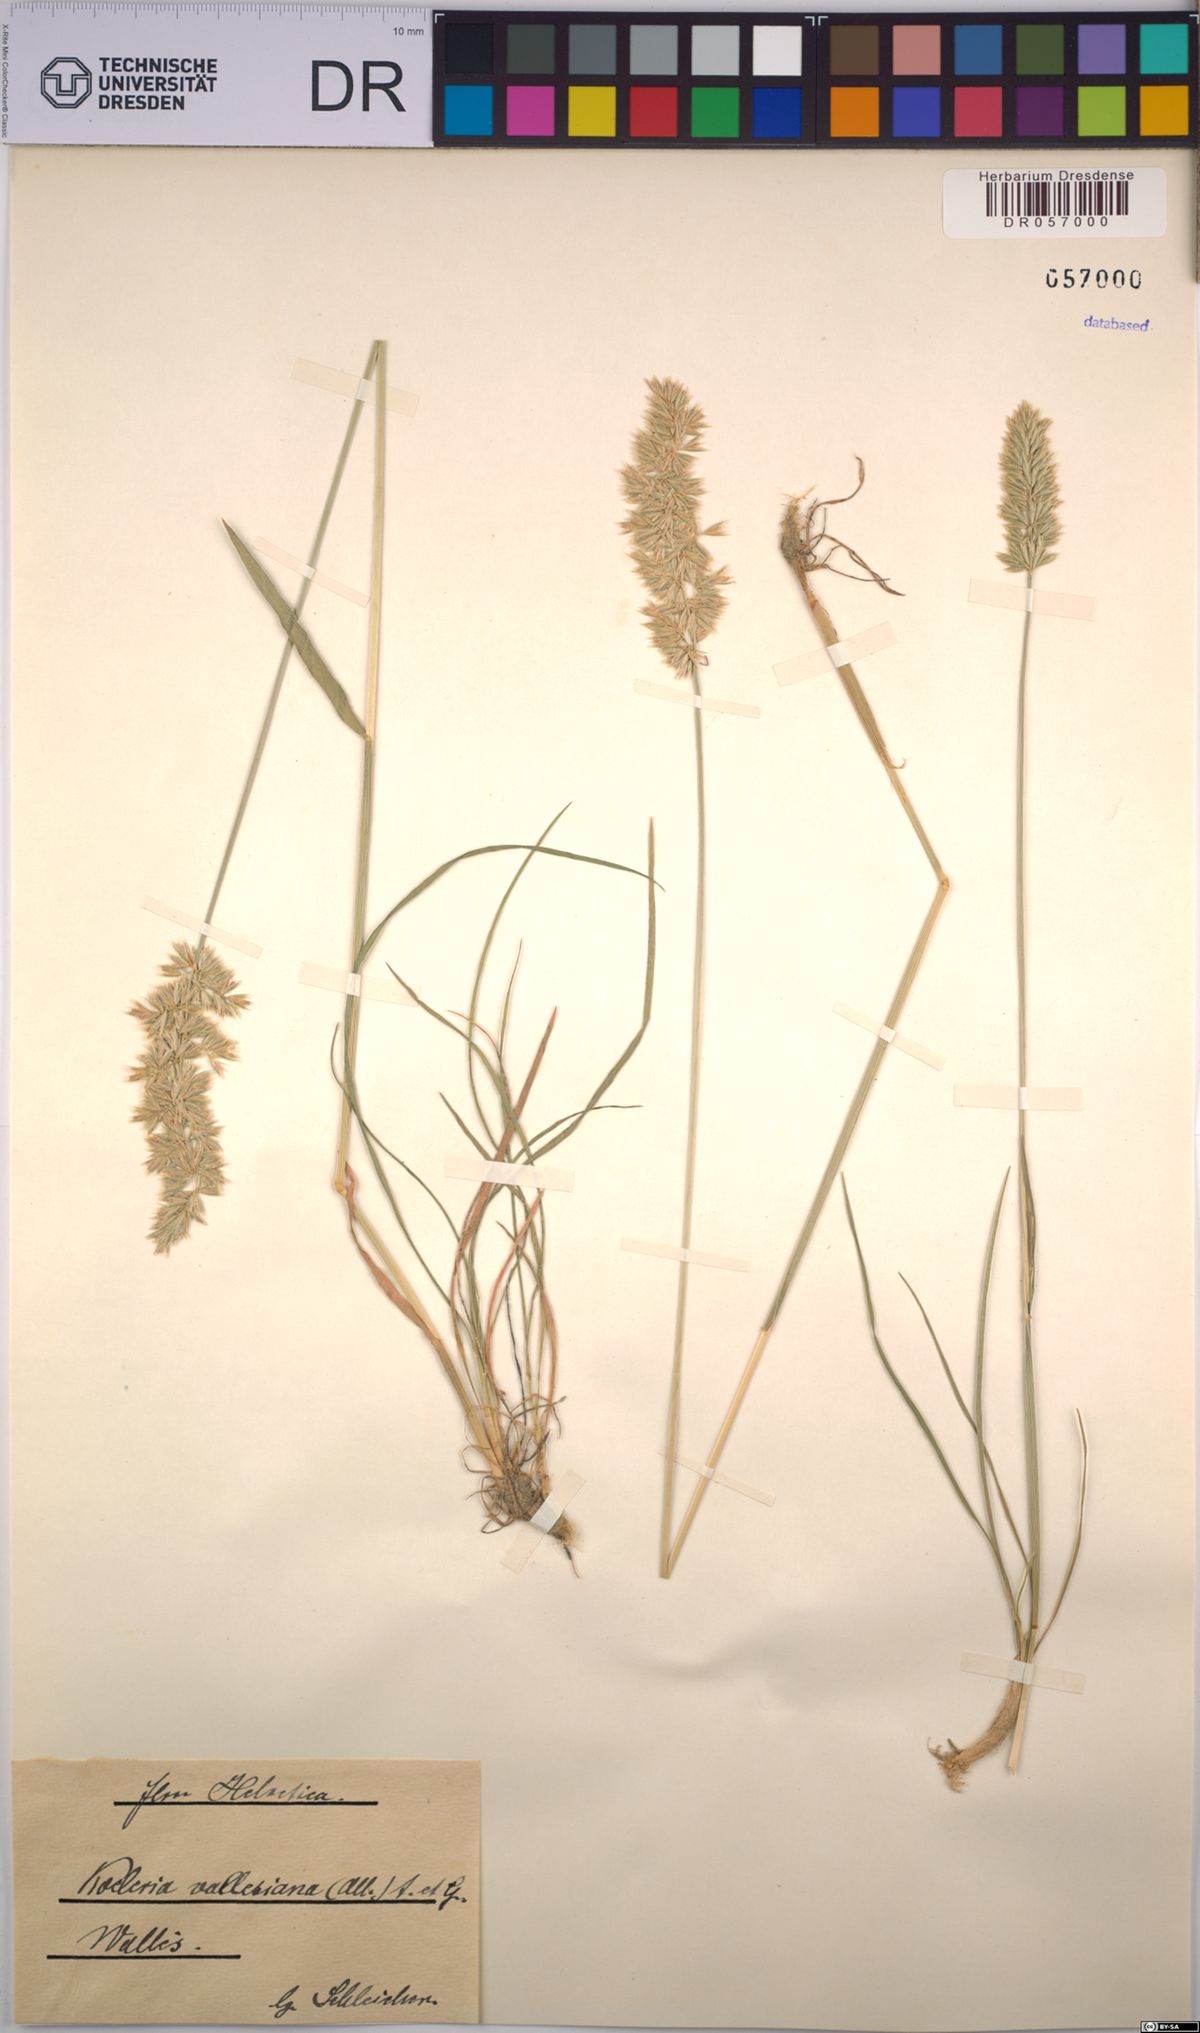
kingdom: Plantae
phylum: Tracheophyta
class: Liliopsida
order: Poales
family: Poaceae
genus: Koeleria
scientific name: Koeleria vallesiana
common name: Somerset hair-grass
